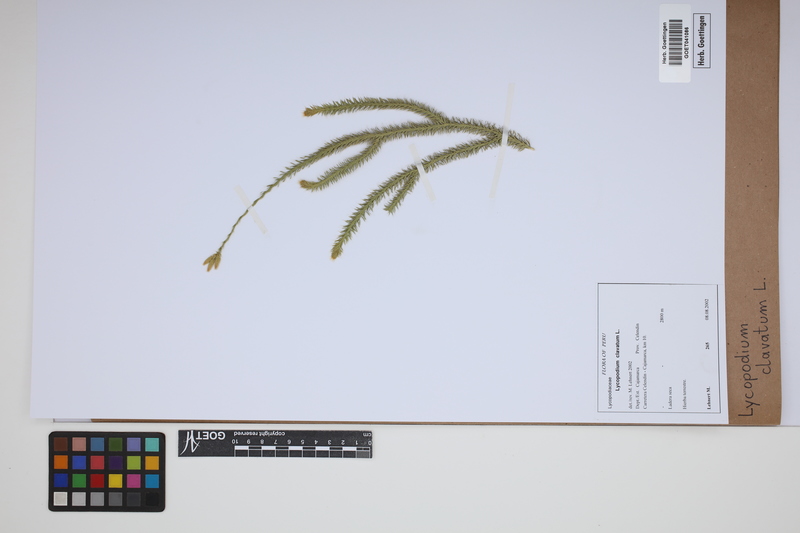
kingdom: Plantae
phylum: Tracheophyta
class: Lycopodiopsida
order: Lycopodiales
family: Lycopodiaceae
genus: Lycopodium
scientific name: Lycopodium clavatum
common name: Stag's-horn clubmoss
